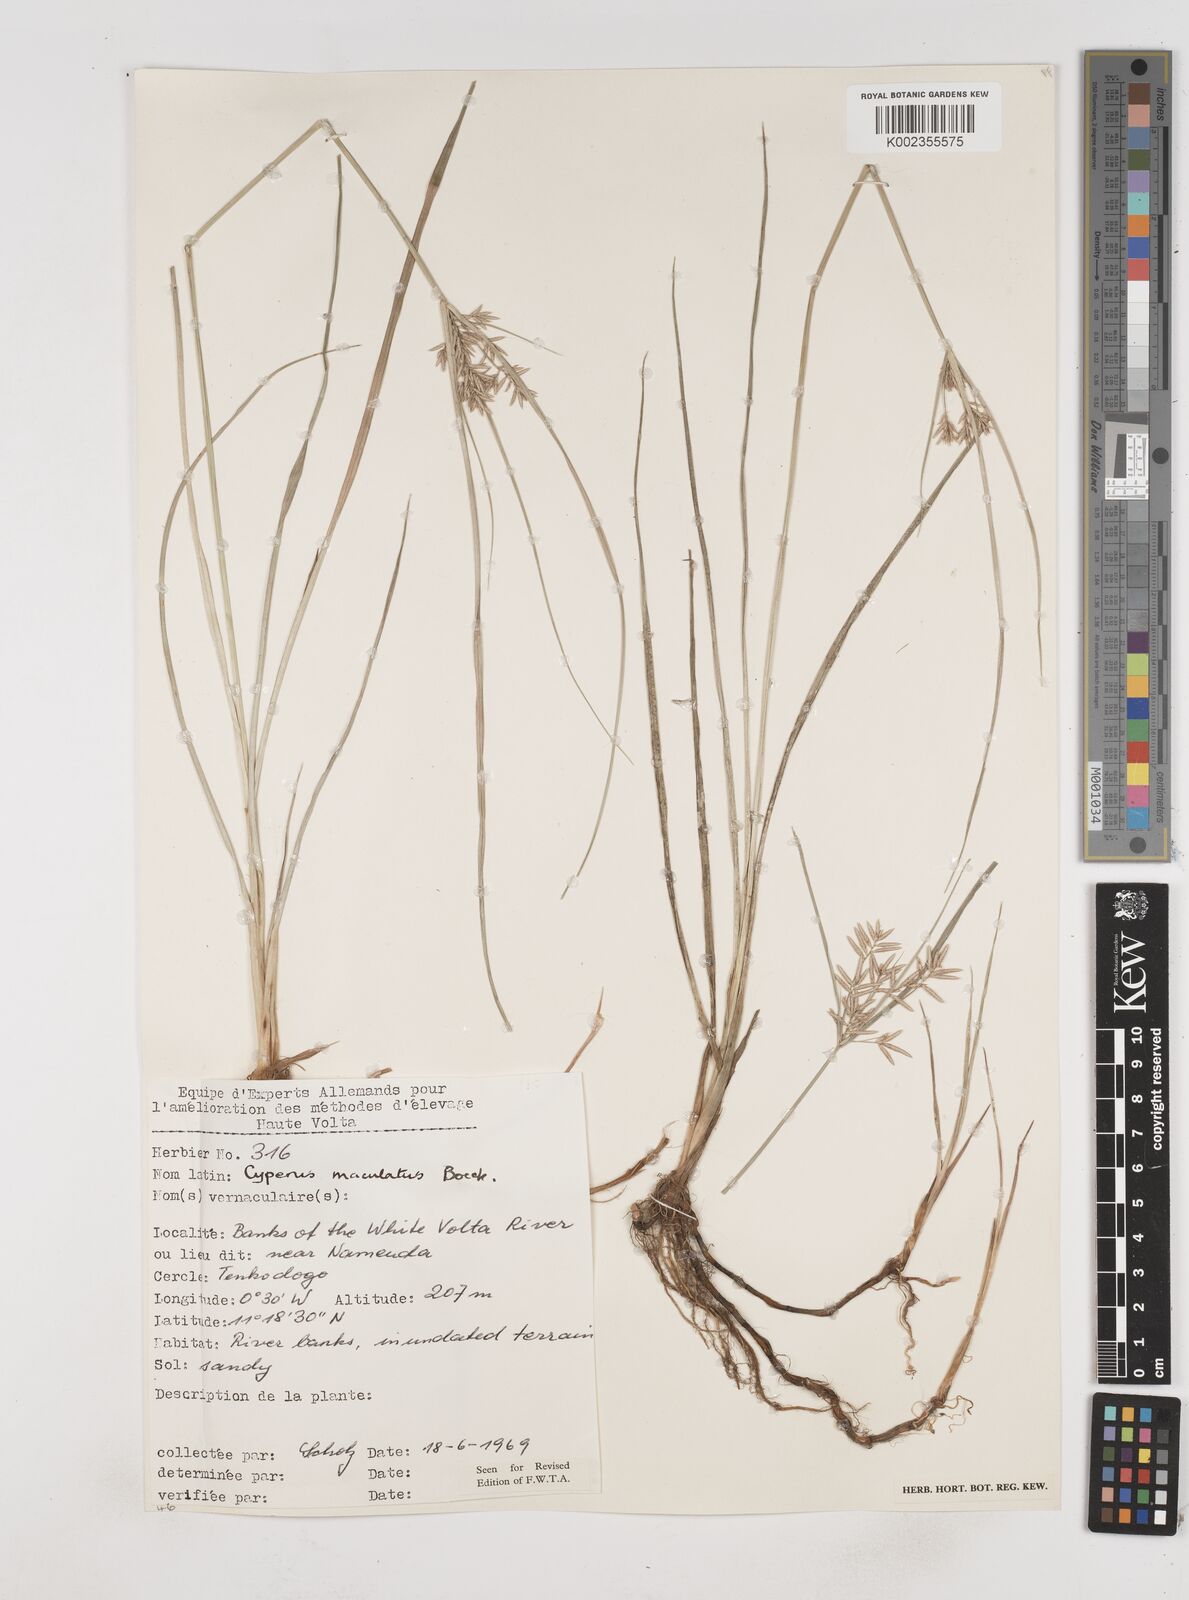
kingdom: Plantae
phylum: Tracheophyta
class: Liliopsida
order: Poales
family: Cyperaceae
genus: Cyperus
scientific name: Cyperus maculatus
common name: Maculated sedge
